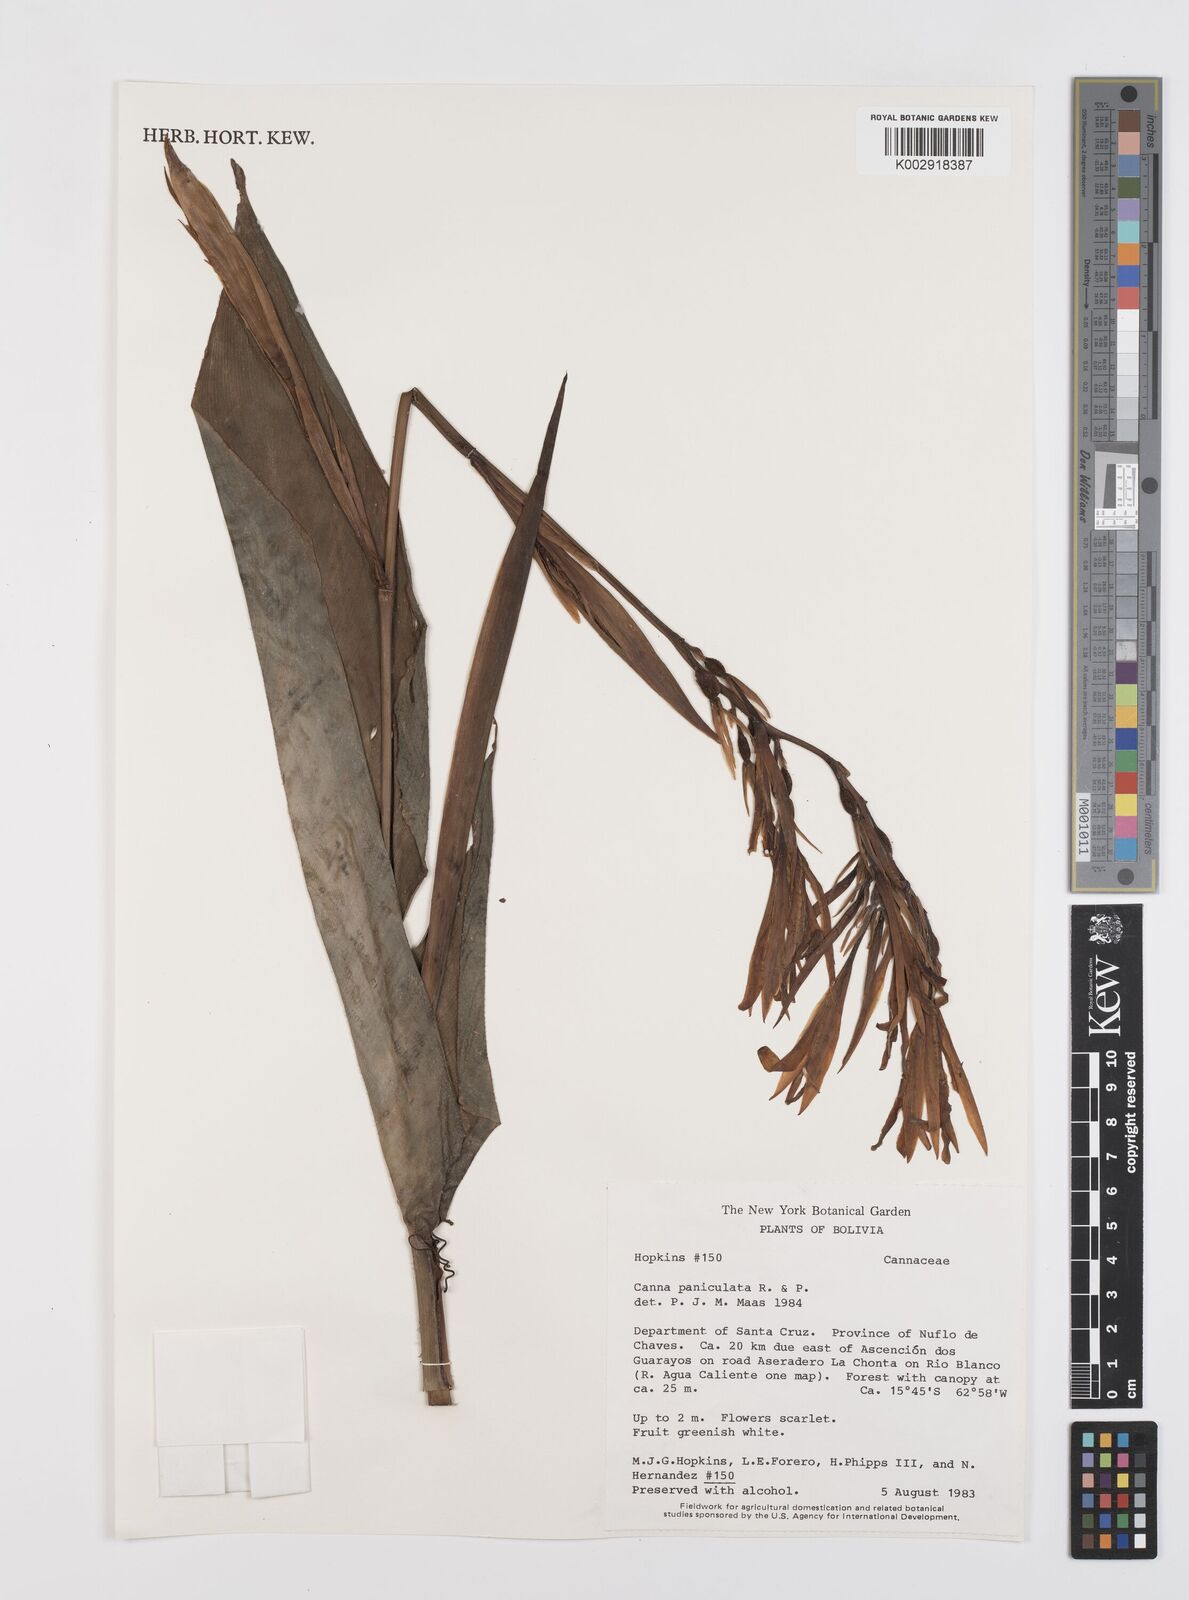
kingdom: Plantae
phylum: Tracheophyta
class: Liliopsida
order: Zingiberales
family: Cannaceae
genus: Canna
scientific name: Canna paniculata
